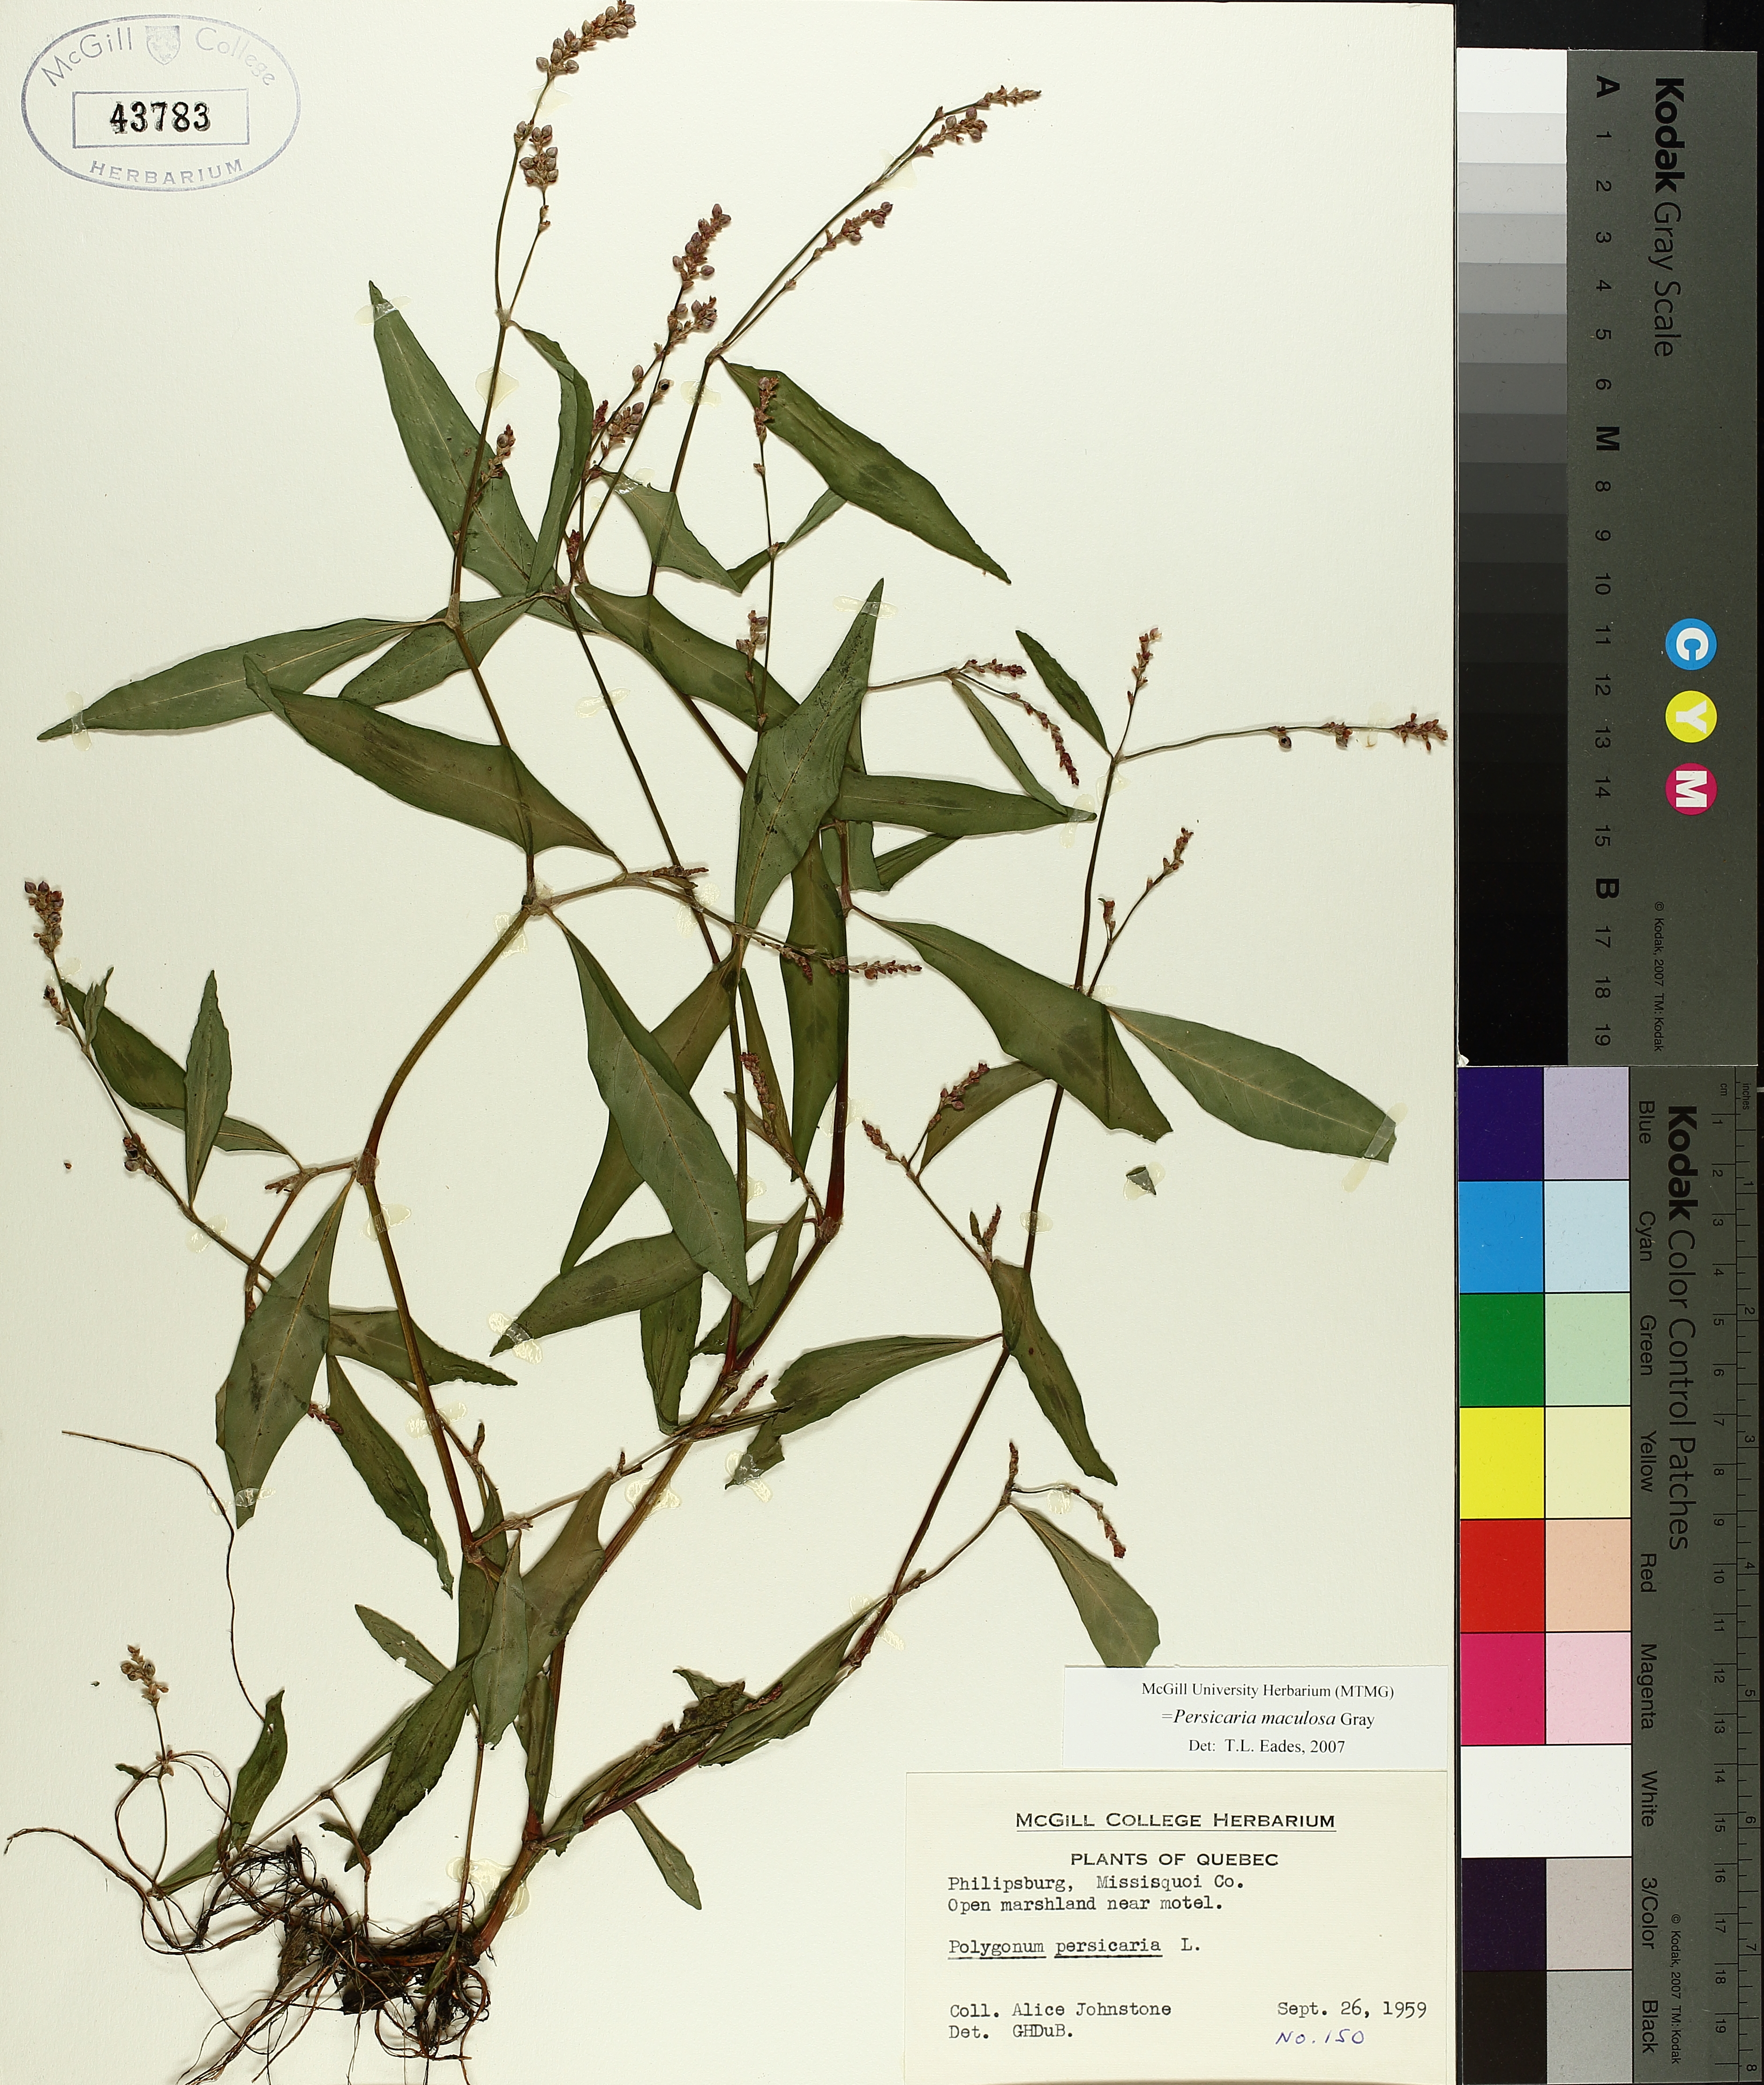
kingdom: Plantae
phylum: Tracheophyta
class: Magnoliopsida
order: Caryophyllales
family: Polygonaceae
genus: Persicaria
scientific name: Persicaria maculosa
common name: Redshank
